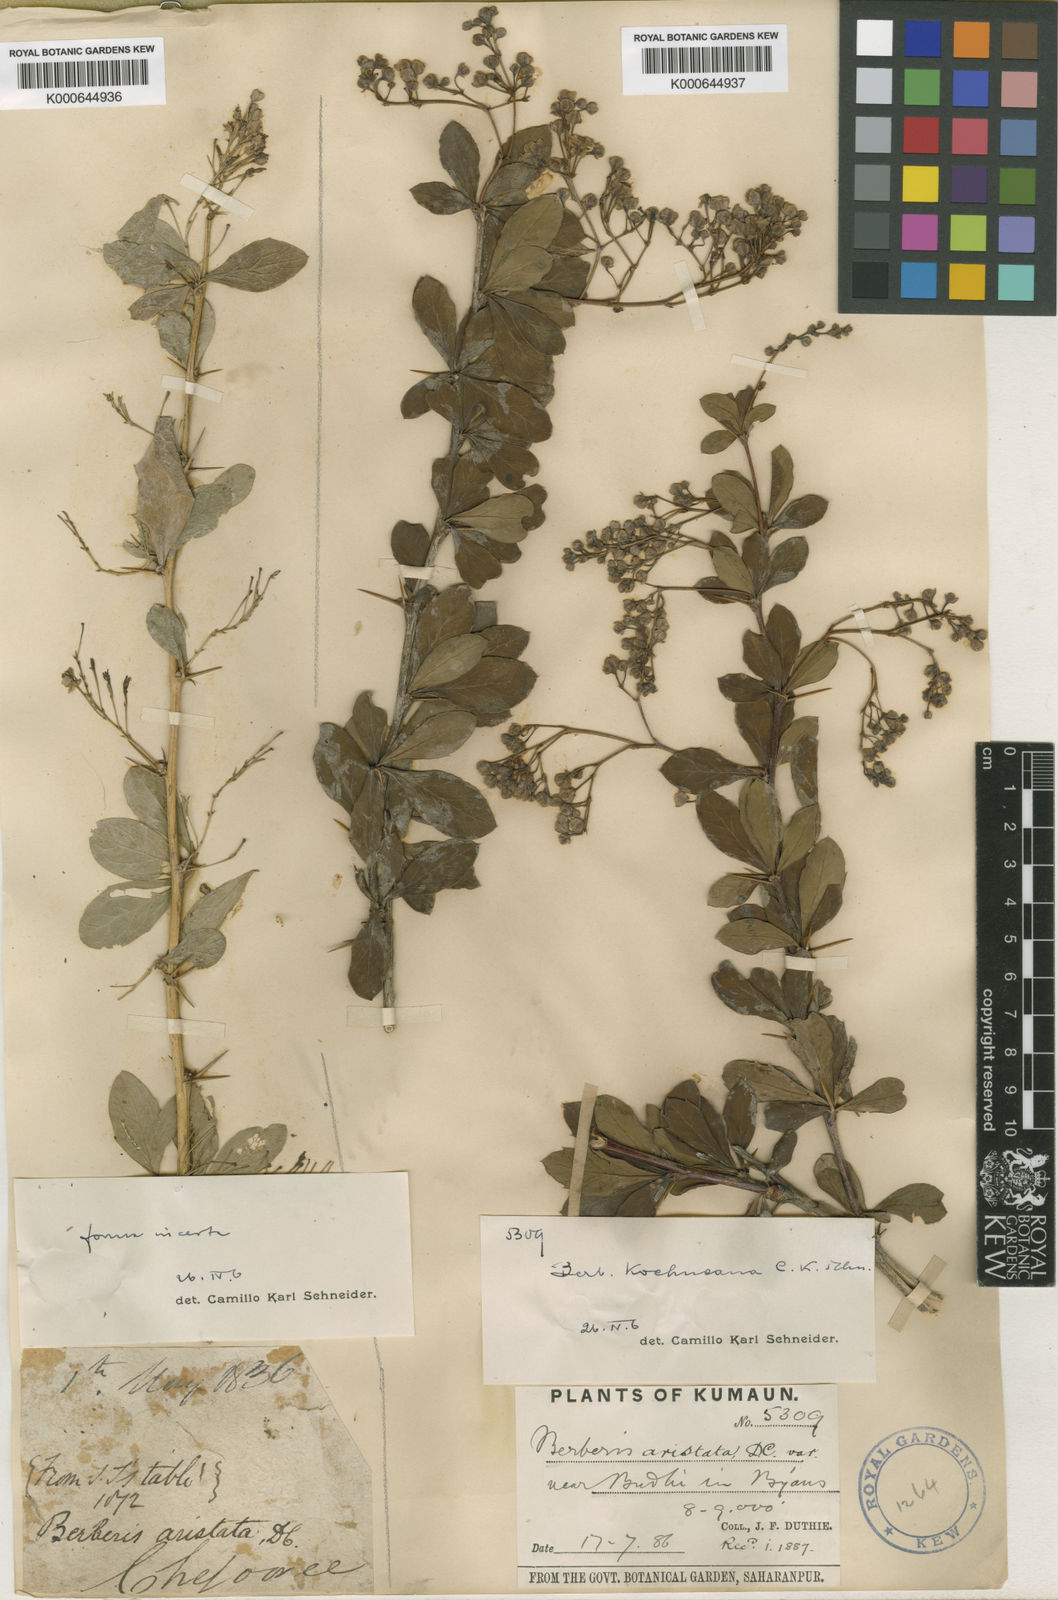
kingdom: Plantae
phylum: Tracheophyta
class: Magnoliopsida
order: Ranunculales
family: Berberidaceae
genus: Berberis
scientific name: Berberis koehneana
